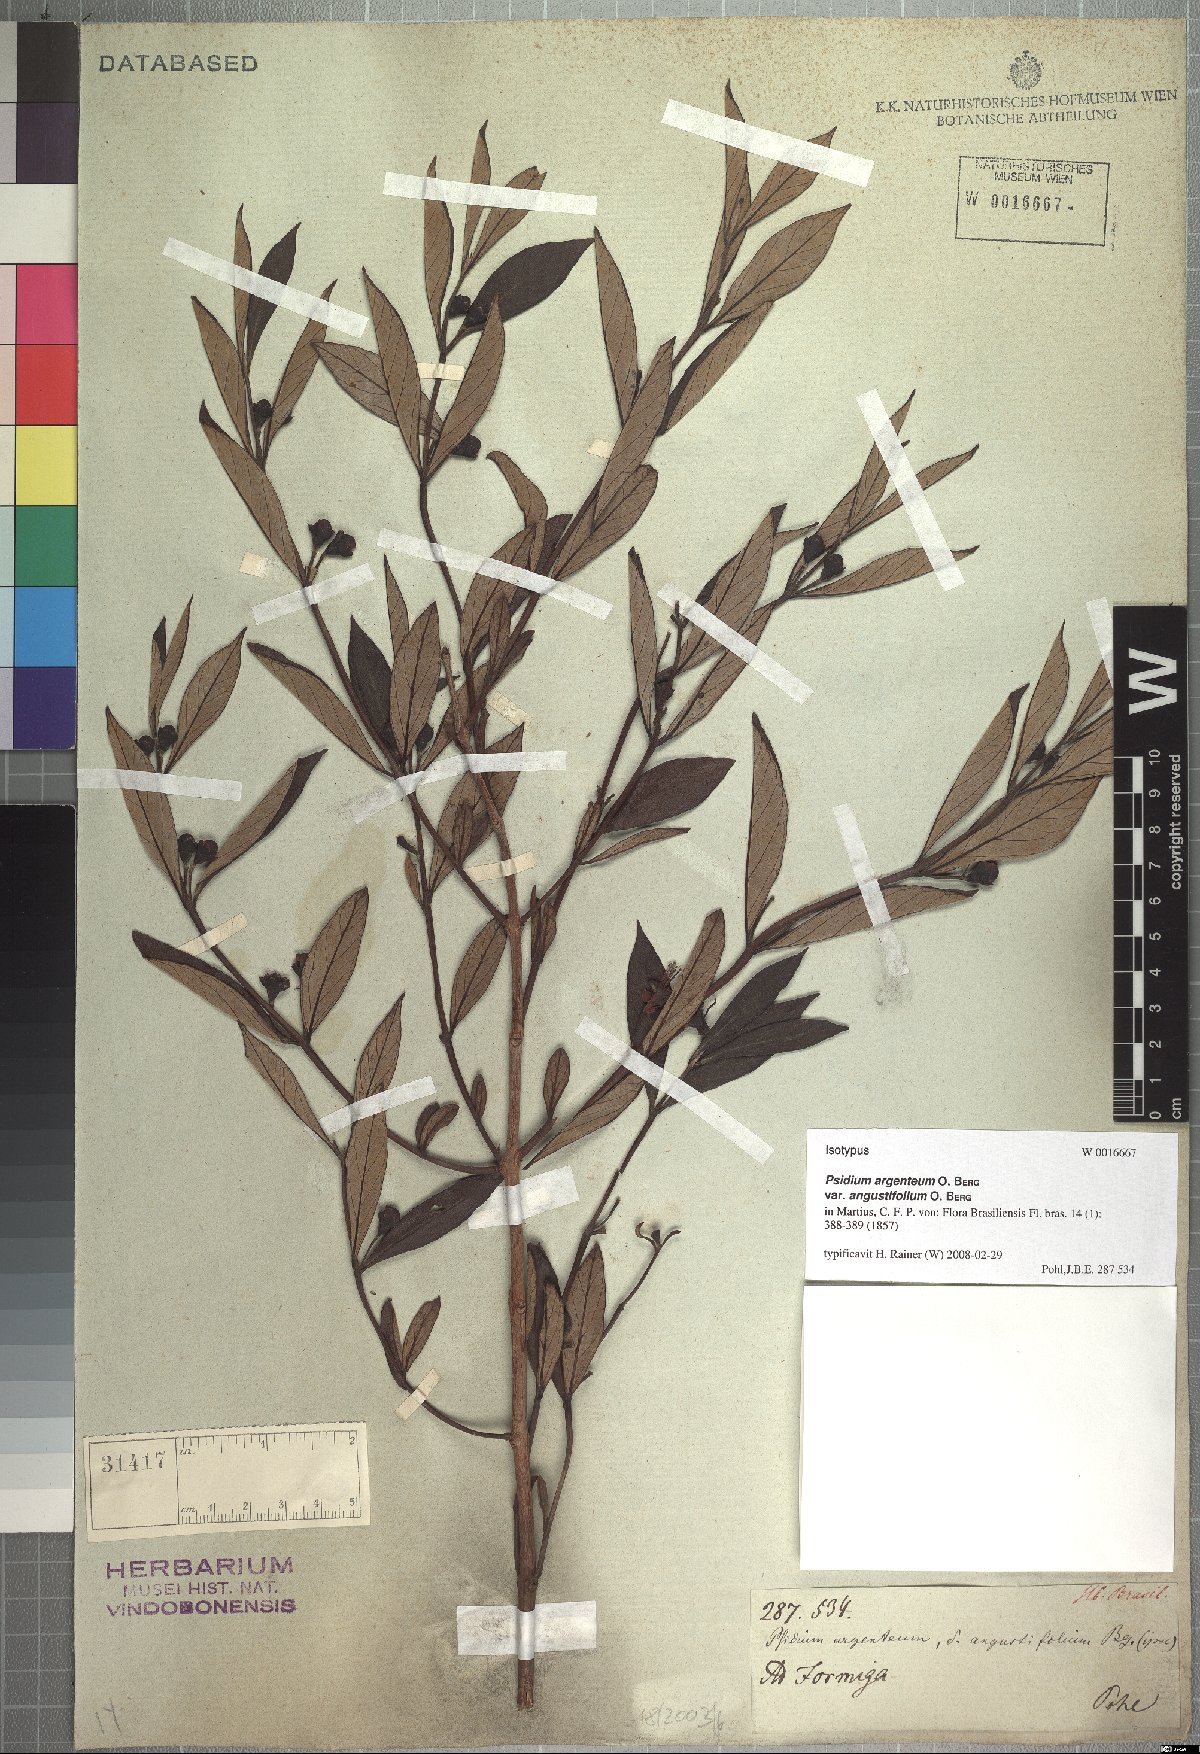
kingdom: Plantae
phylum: Tracheophyta
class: Magnoliopsida
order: Myrtales
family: Myrtaceae
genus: Psidium
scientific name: Psidium australe
